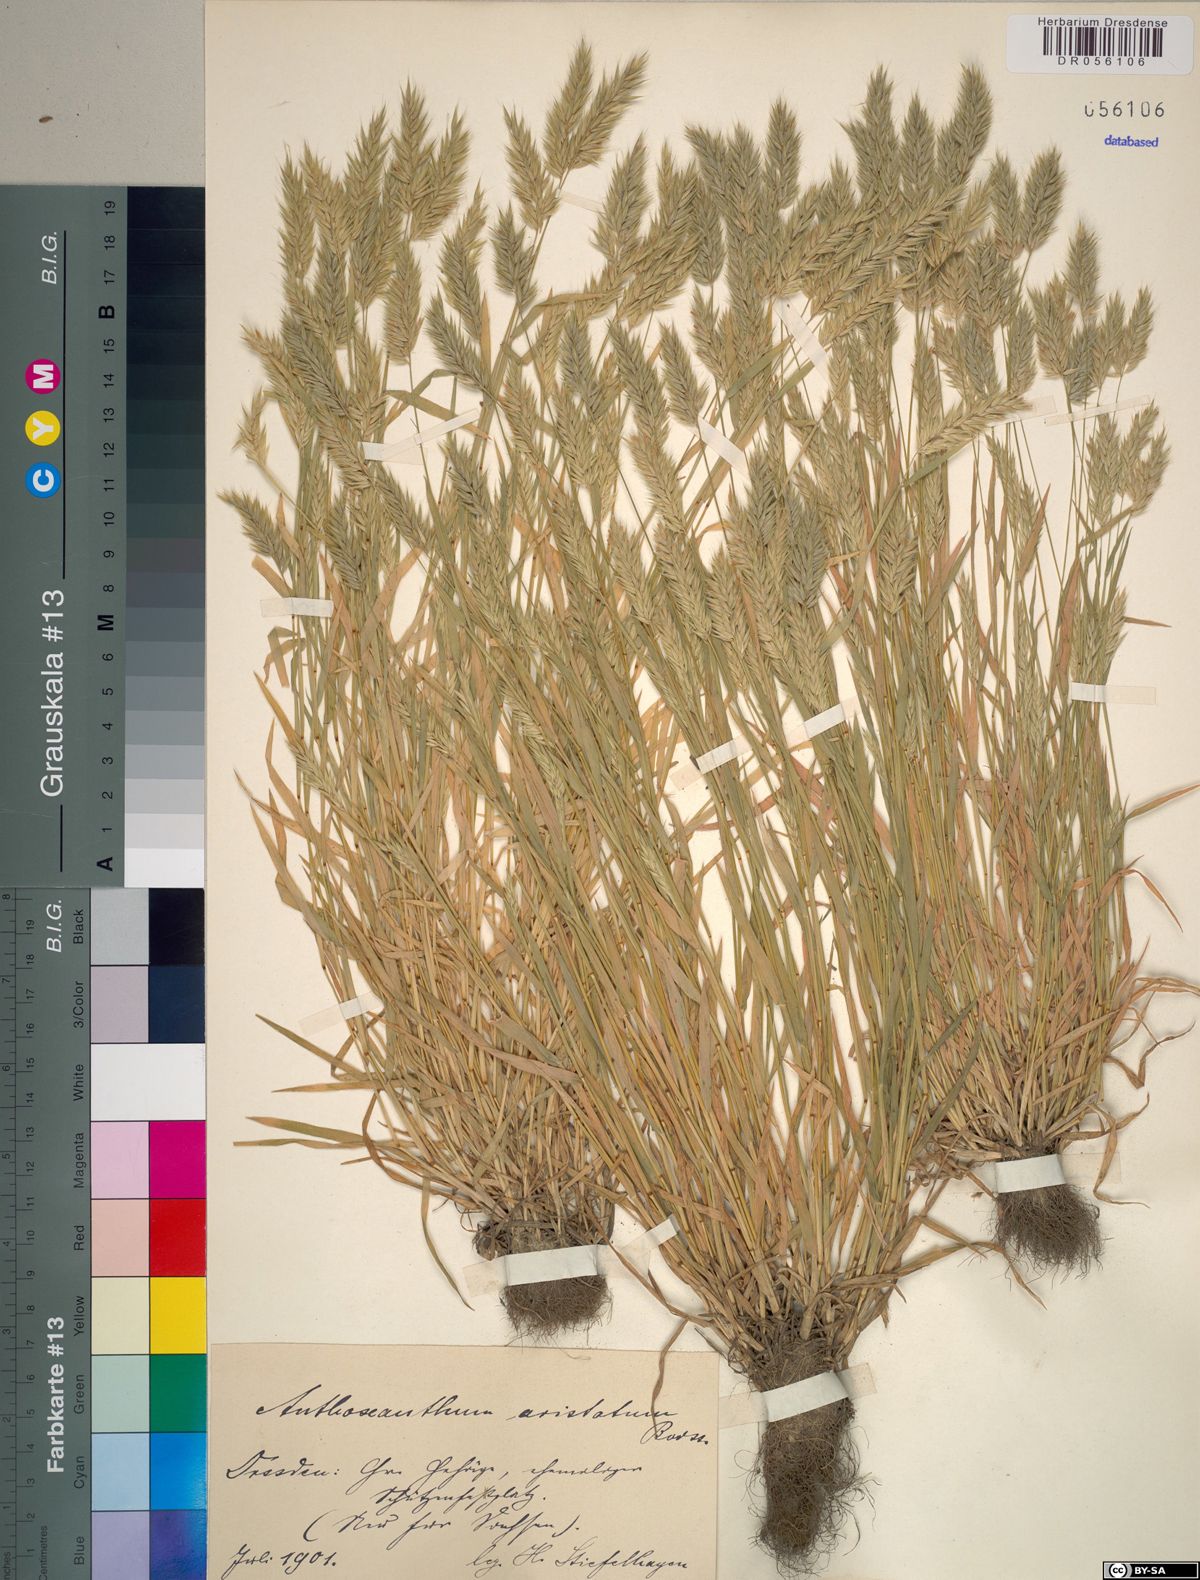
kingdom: Plantae
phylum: Tracheophyta
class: Liliopsida
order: Poales
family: Poaceae
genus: Anthoxanthum
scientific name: Anthoxanthum aristatum
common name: Annual vernal-grass
